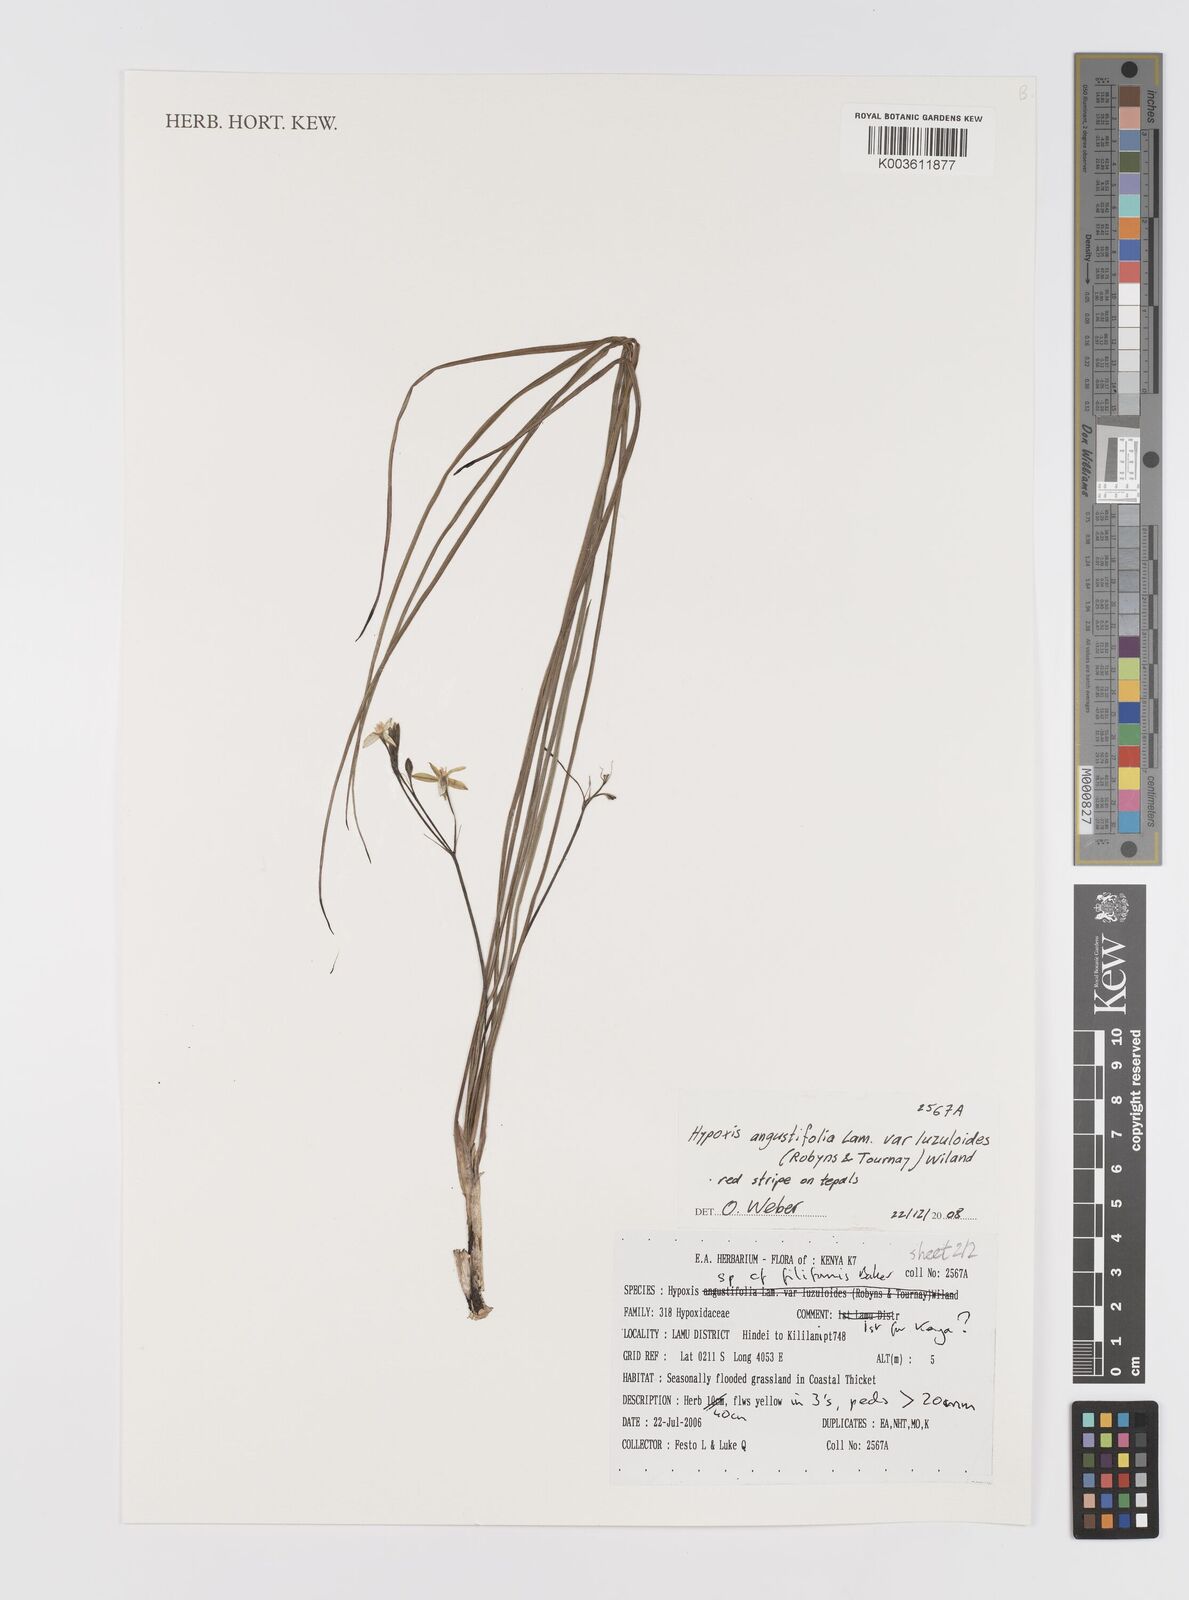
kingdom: Plantae
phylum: Tracheophyta
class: Liliopsida
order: Asparagales
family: Hypoxidaceae
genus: Hypoxis
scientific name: Hypoxis angustifolia
